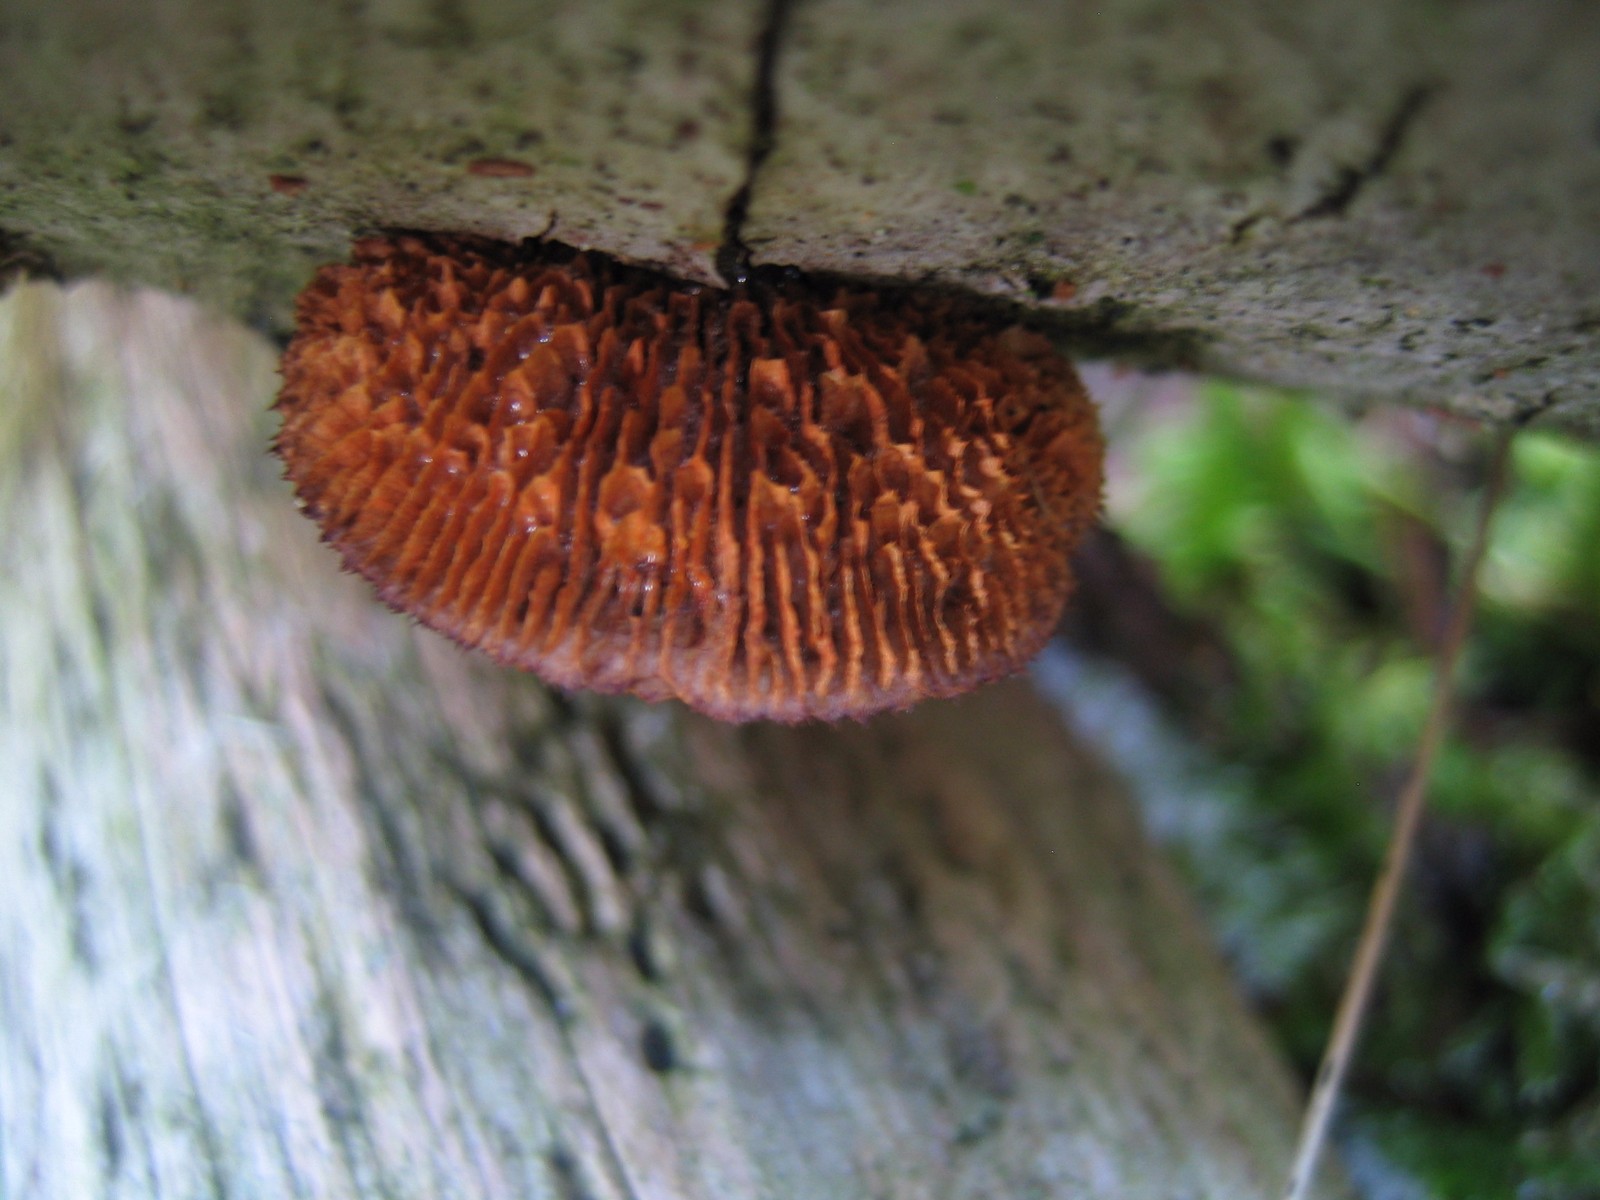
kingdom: Fungi
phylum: Basidiomycota
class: Agaricomycetes
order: Gloeophyllales
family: Gloeophyllaceae
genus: Gloeophyllum
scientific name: Gloeophyllum sepiarium
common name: fyrre-korkhat
